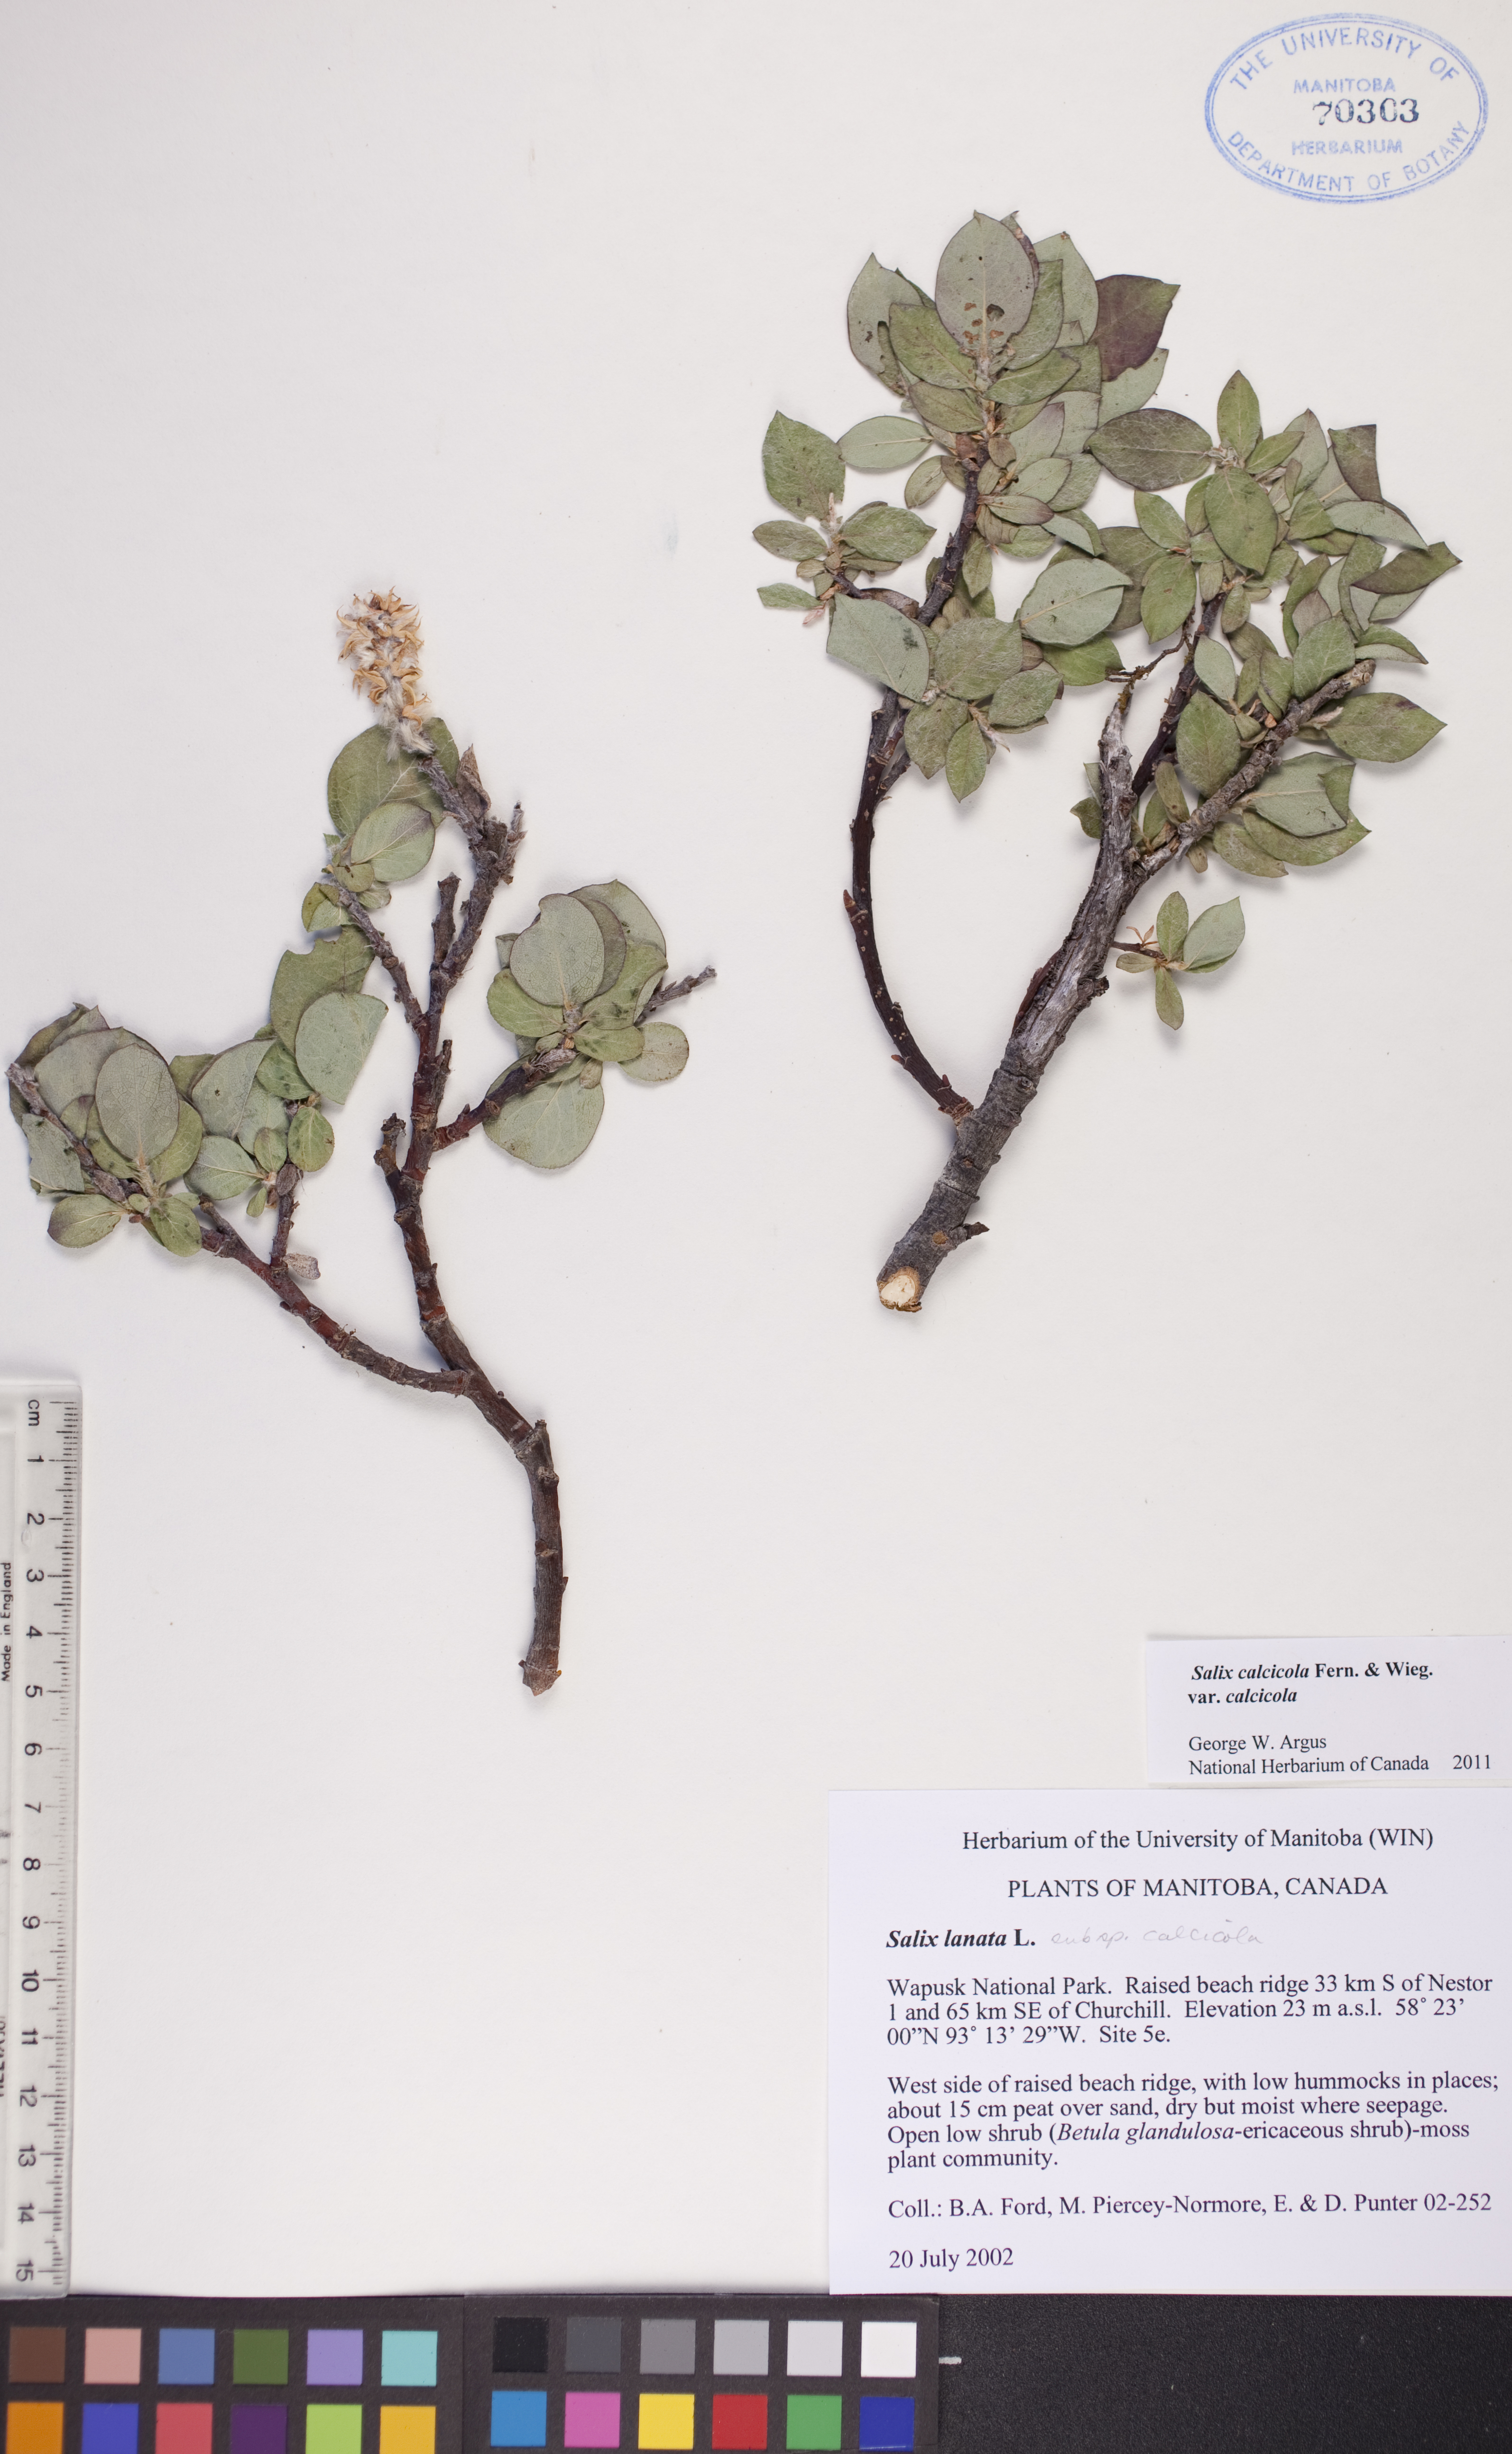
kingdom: Plantae
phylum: Tracheophyta
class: Magnoliopsida
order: Malpighiales
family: Salicaceae
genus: Salix
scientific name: Salix calcicola
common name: Calcareous willow
